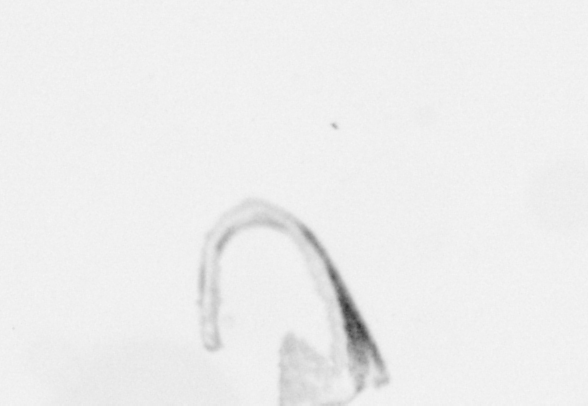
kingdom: Chromista
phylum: Ochrophyta
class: Bacillariophyceae
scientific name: Bacillariophyceae
